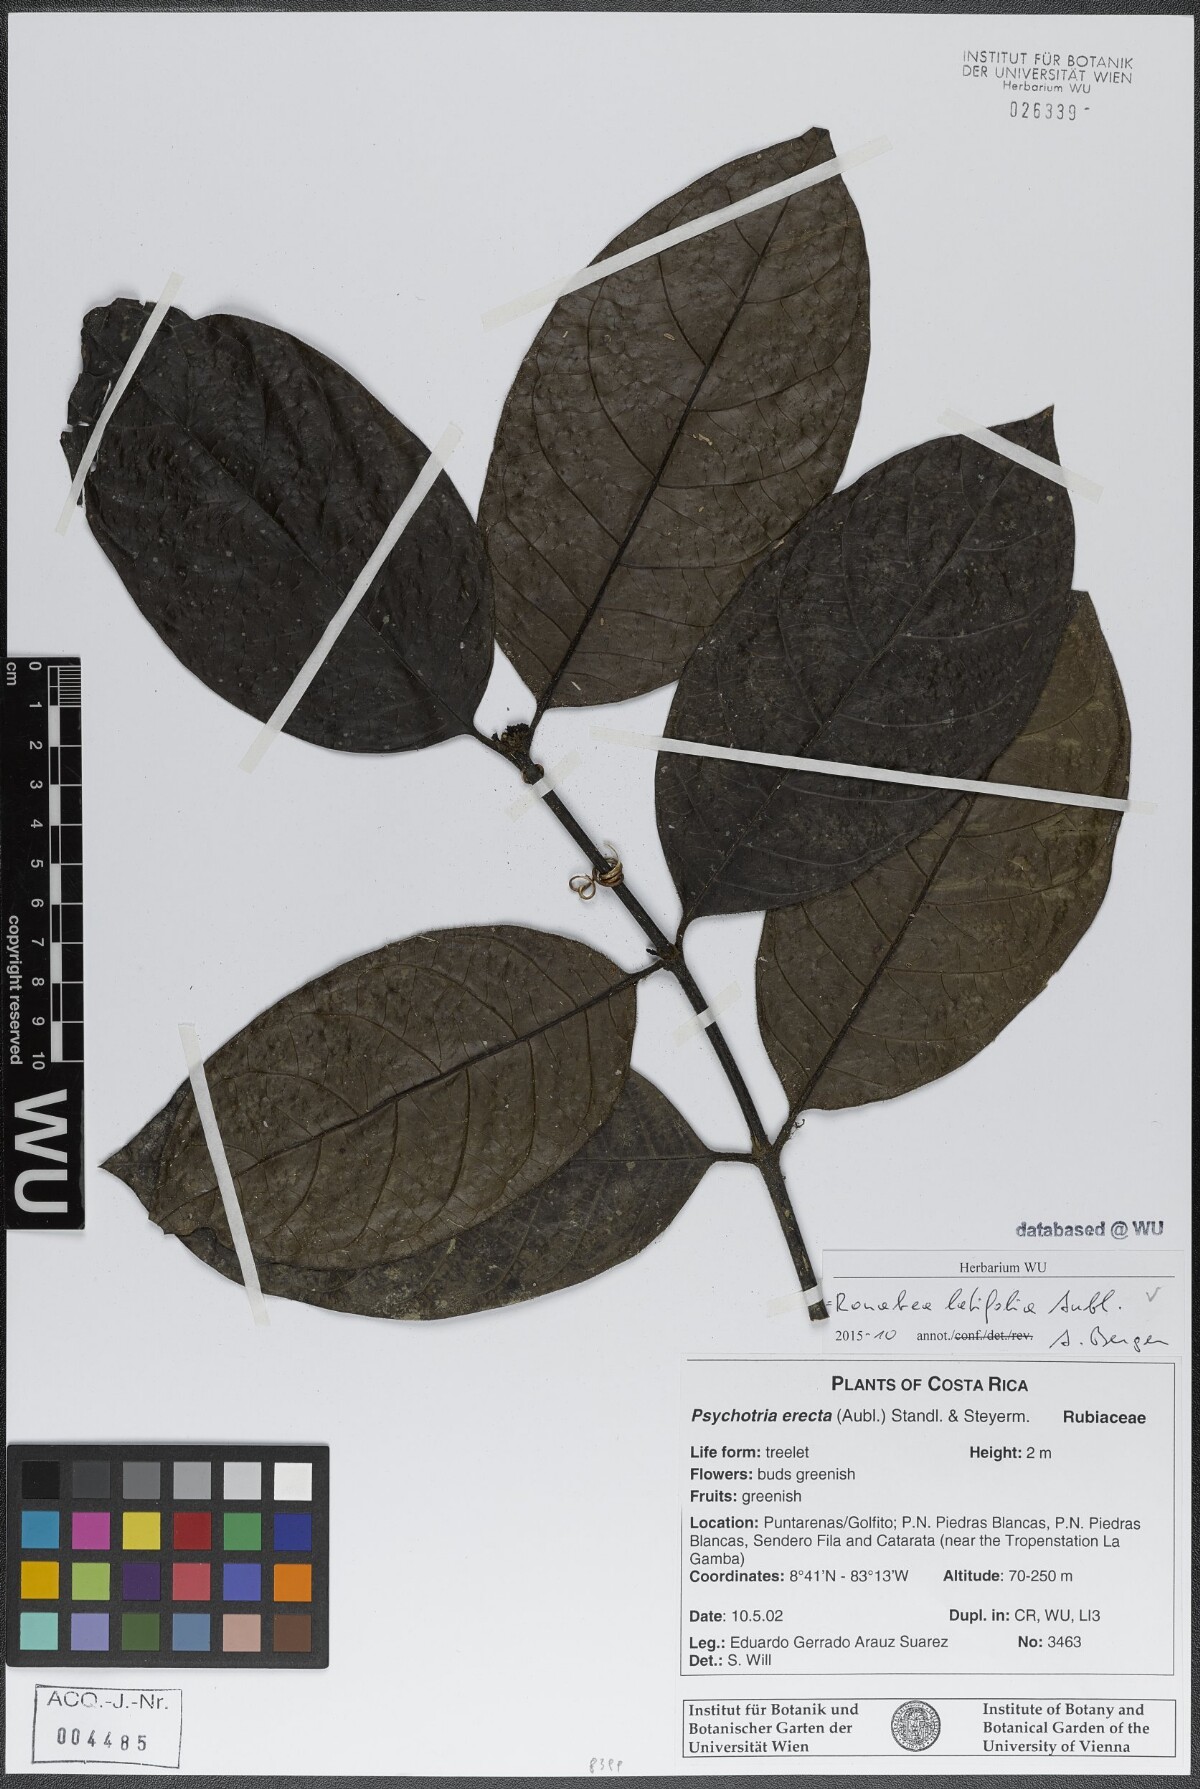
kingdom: Plantae
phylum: Tracheophyta
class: Magnoliopsida
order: Gentianales
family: Rubiaceae
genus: Ronabea
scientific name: Ronabea latifolia
